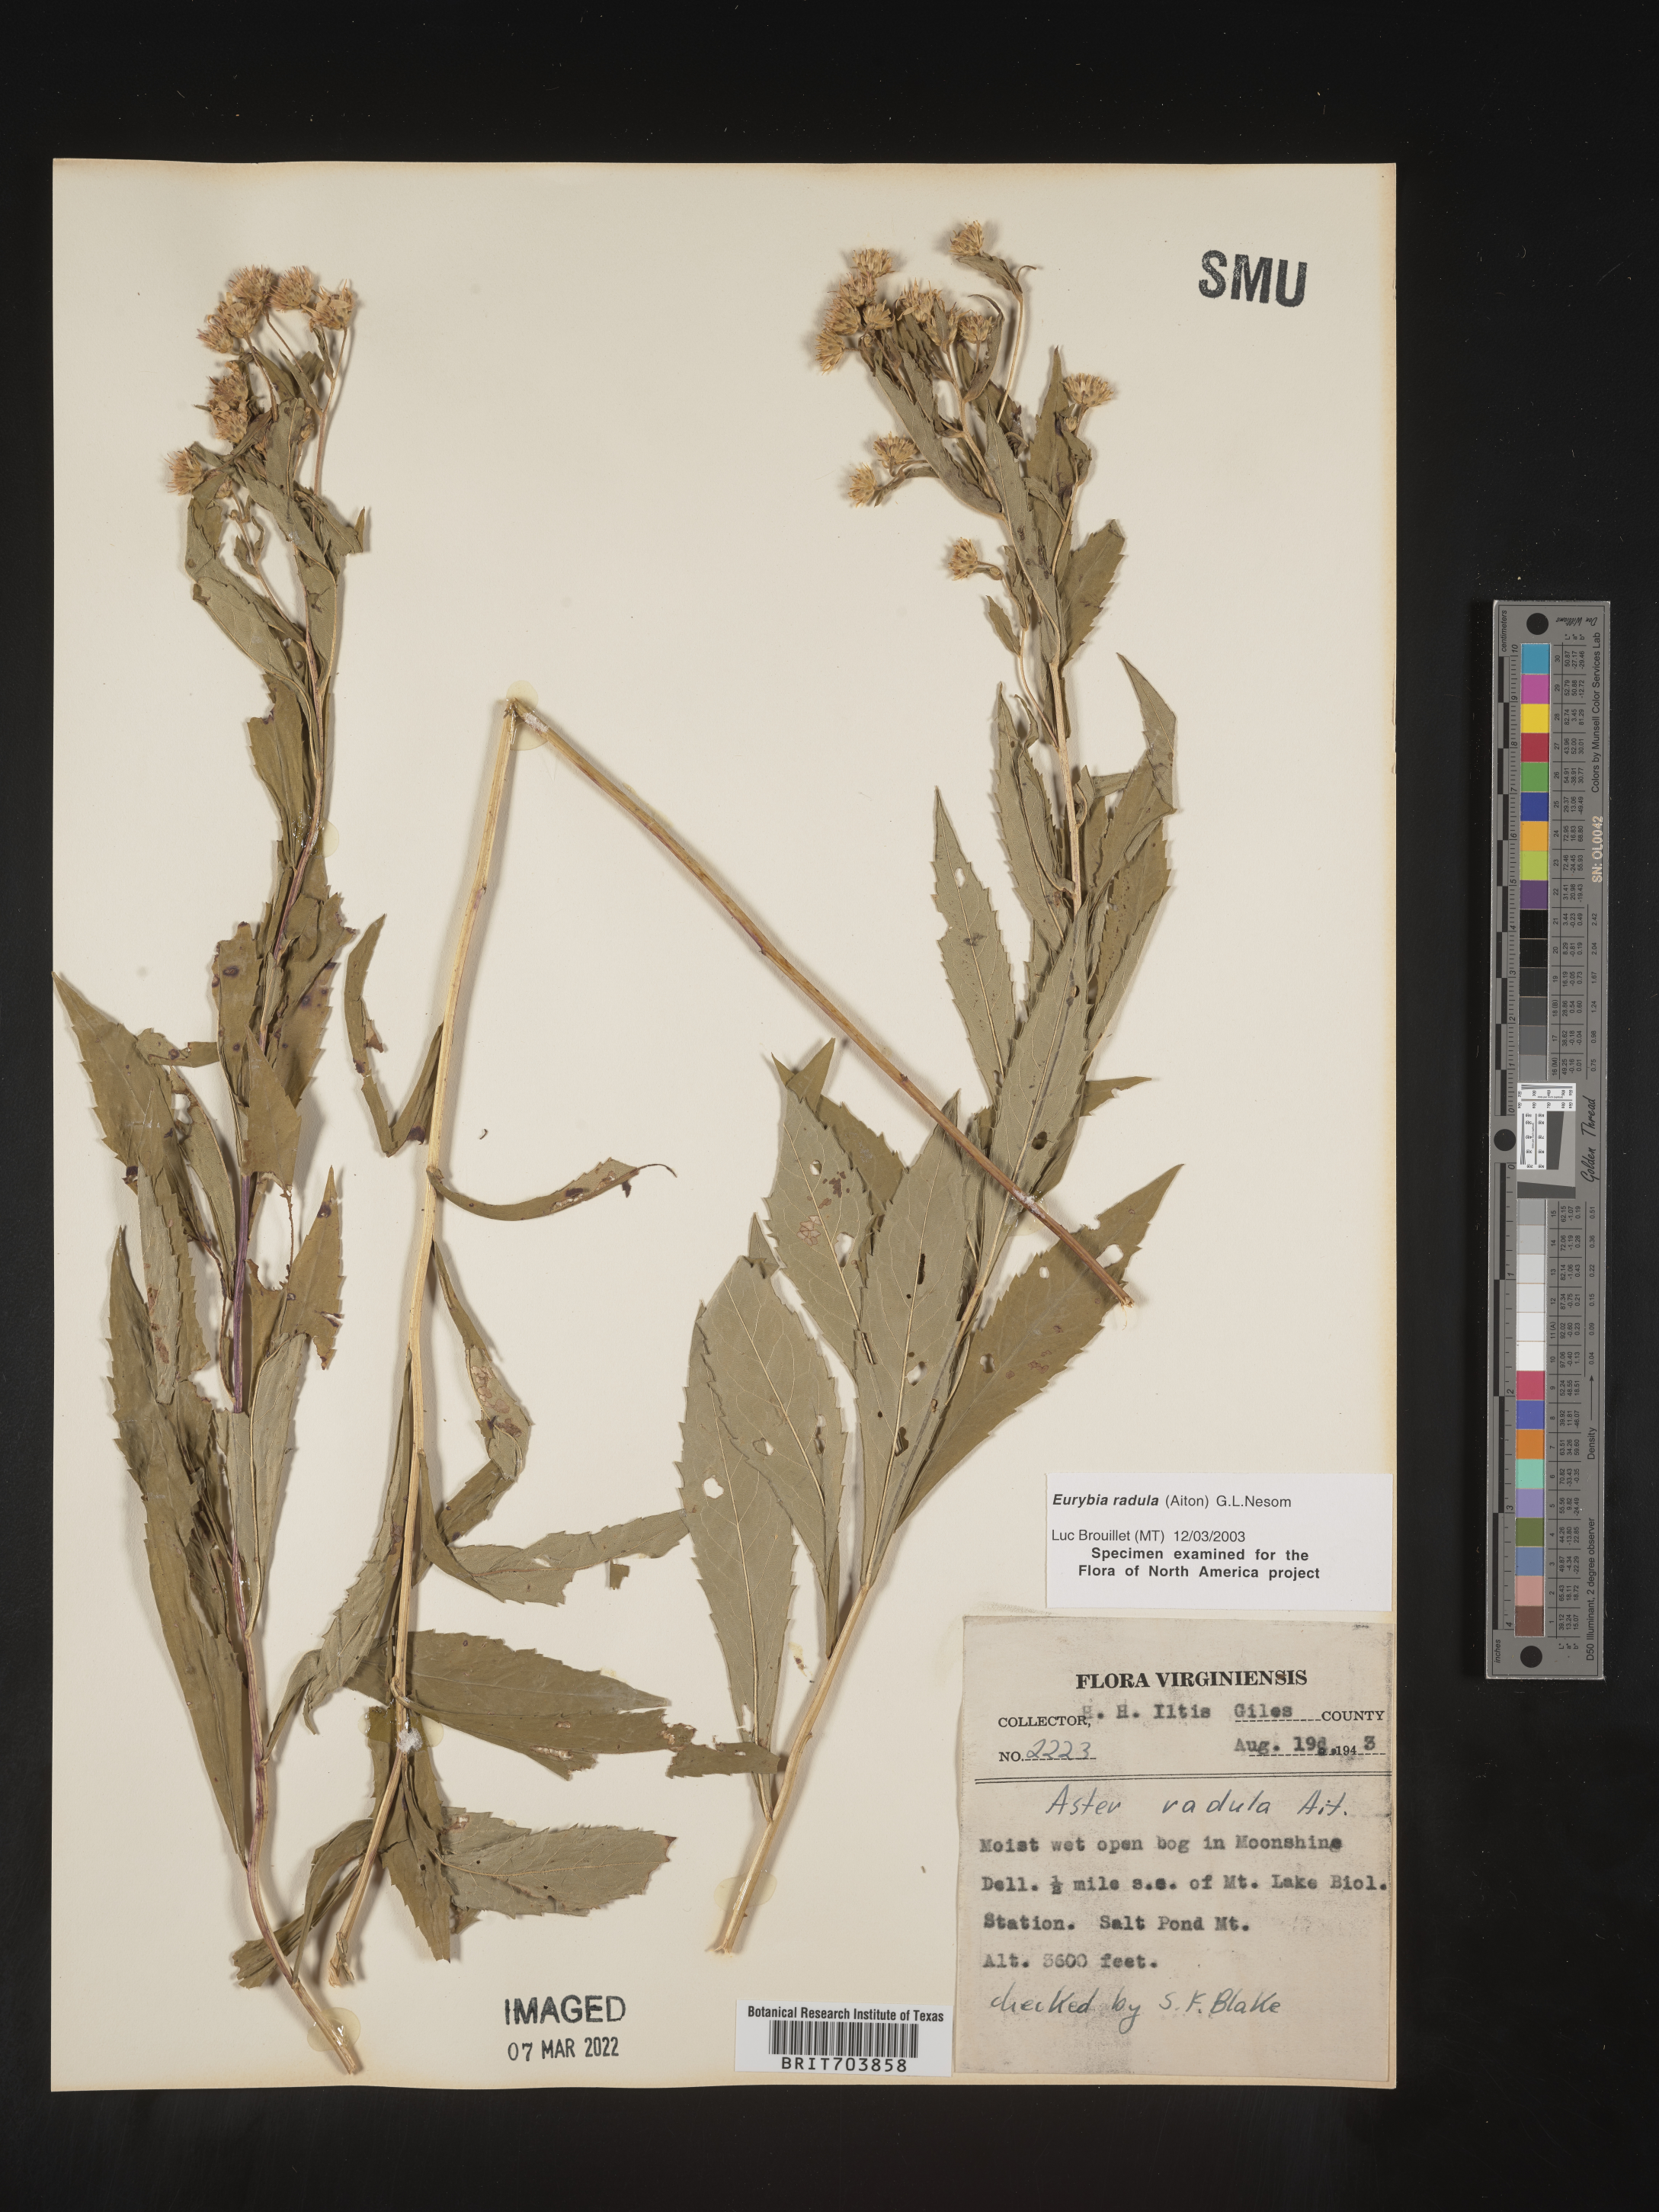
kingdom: Plantae
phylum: Tracheophyta
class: Magnoliopsida
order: Asterales
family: Asteraceae
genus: Eurybia
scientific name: Eurybia radula
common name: Low rough aster
